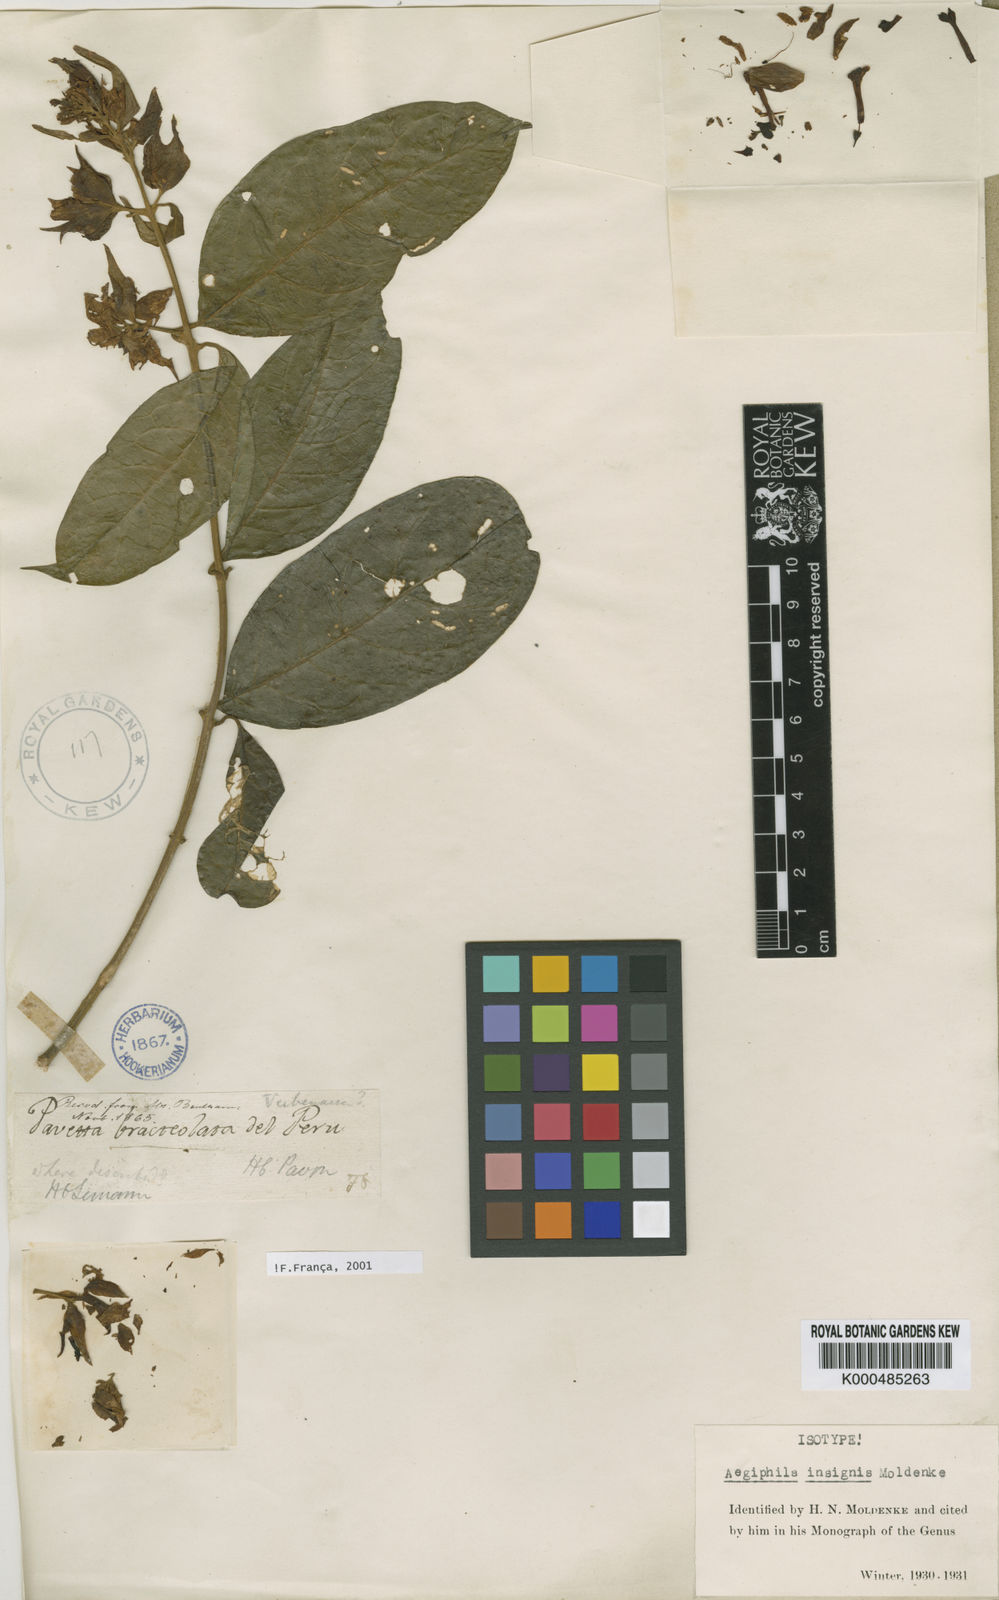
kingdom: Plantae
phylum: Tracheophyta
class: Magnoliopsida
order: Lamiales
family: Lamiaceae
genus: Aegiphila
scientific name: Aegiphila insignis
